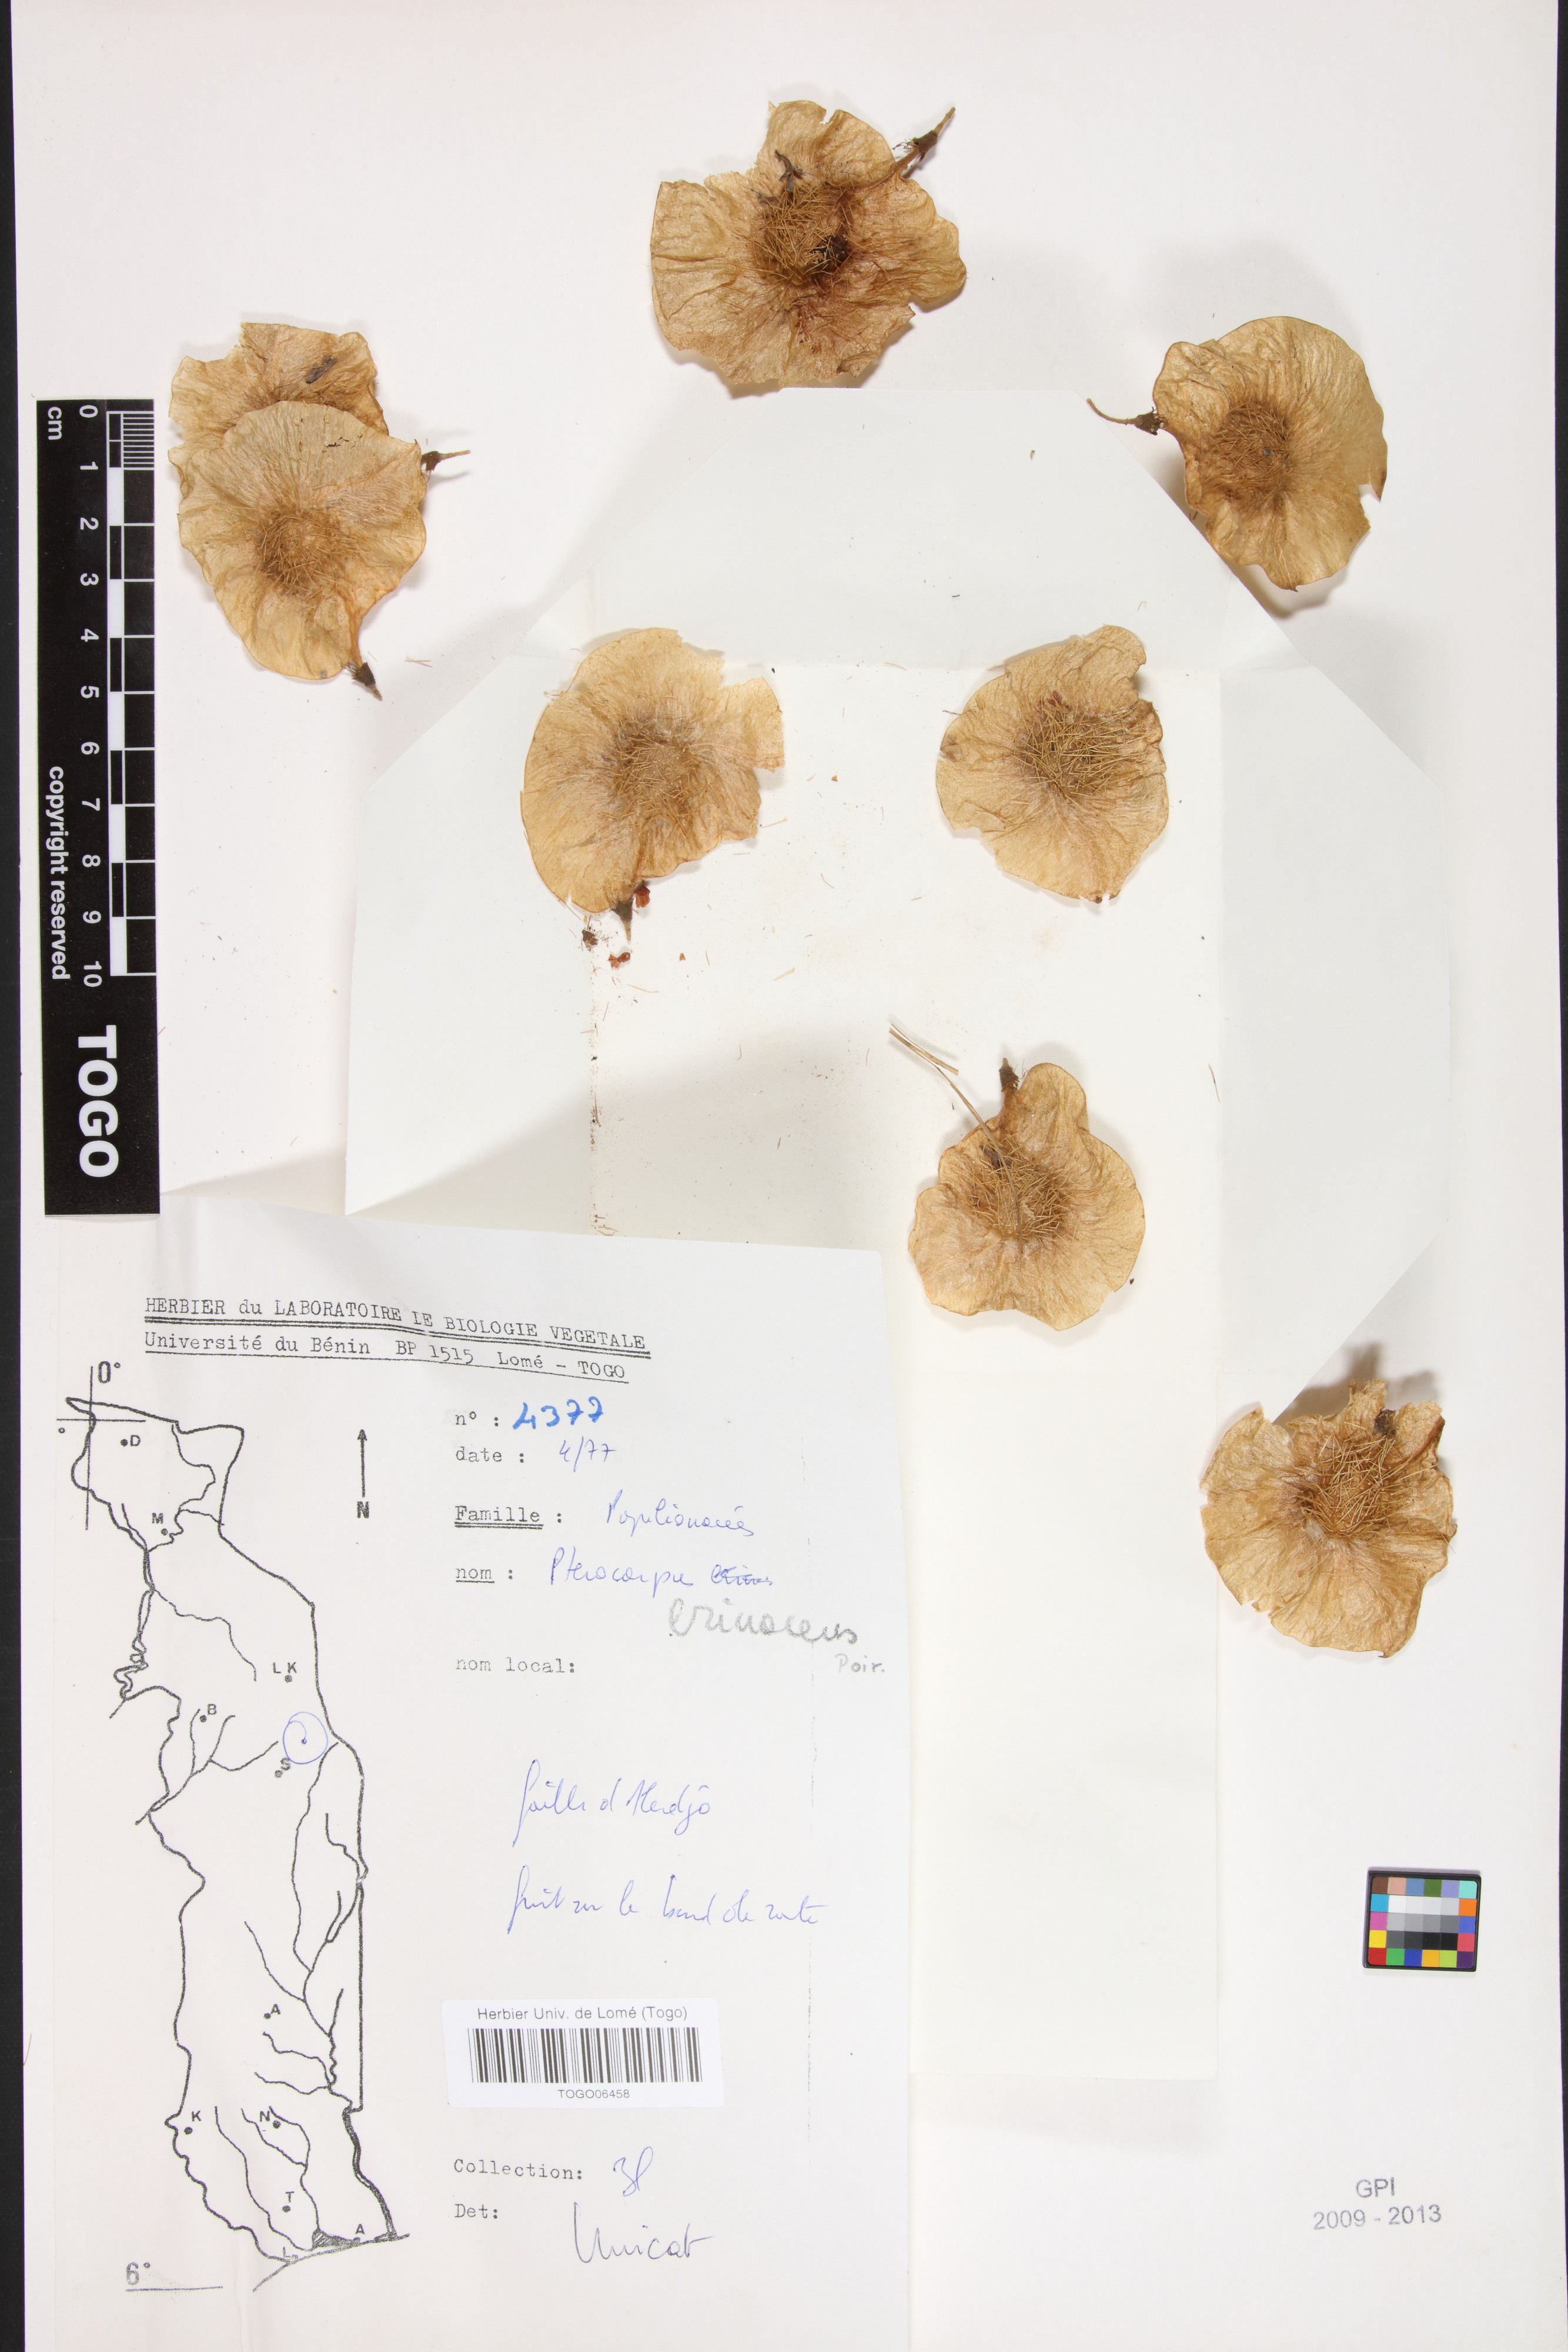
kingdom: Plantae
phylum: Tracheophyta
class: Magnoliopsida
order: Fabales
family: Fabaceae
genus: Pterocarpus
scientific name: Pterocarpus erinaceus
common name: African rosewood
